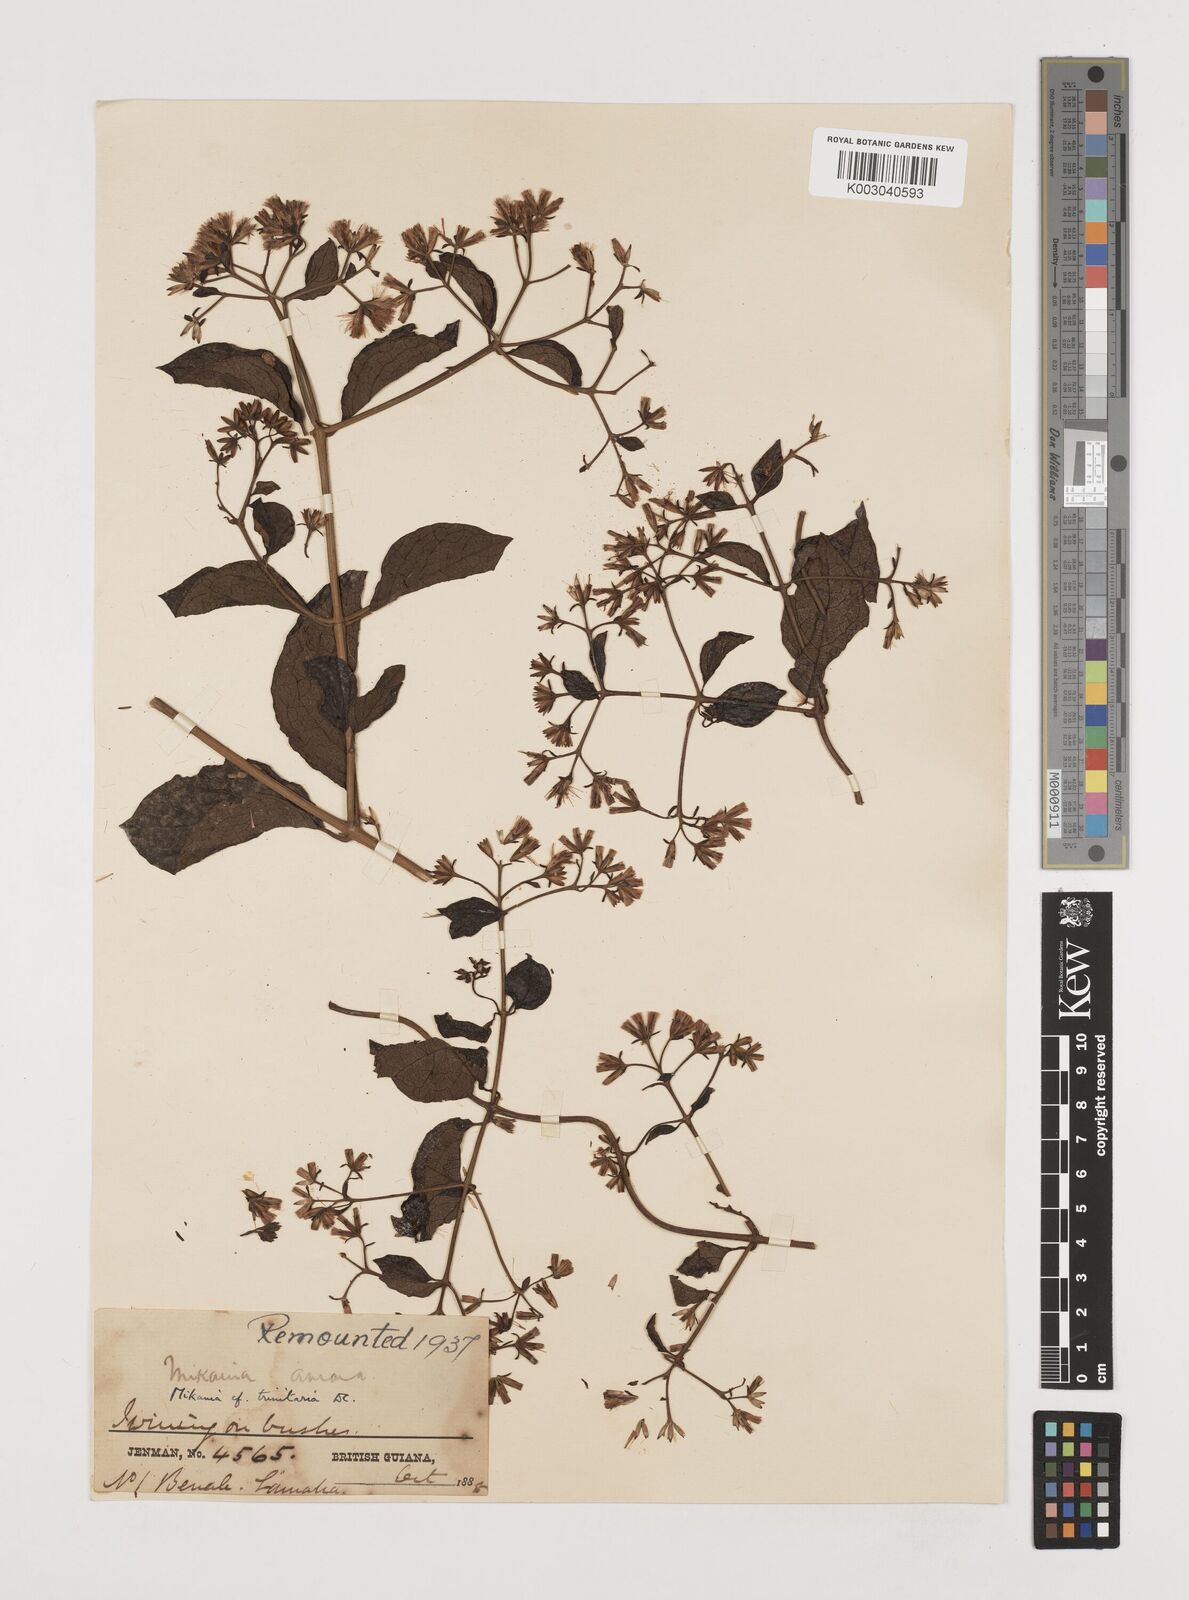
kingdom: Plantae
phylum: Tracheophyta
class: Magnoliopsida
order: Asterales
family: Asteraceae
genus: Mikania
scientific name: Mikania trinitaria
